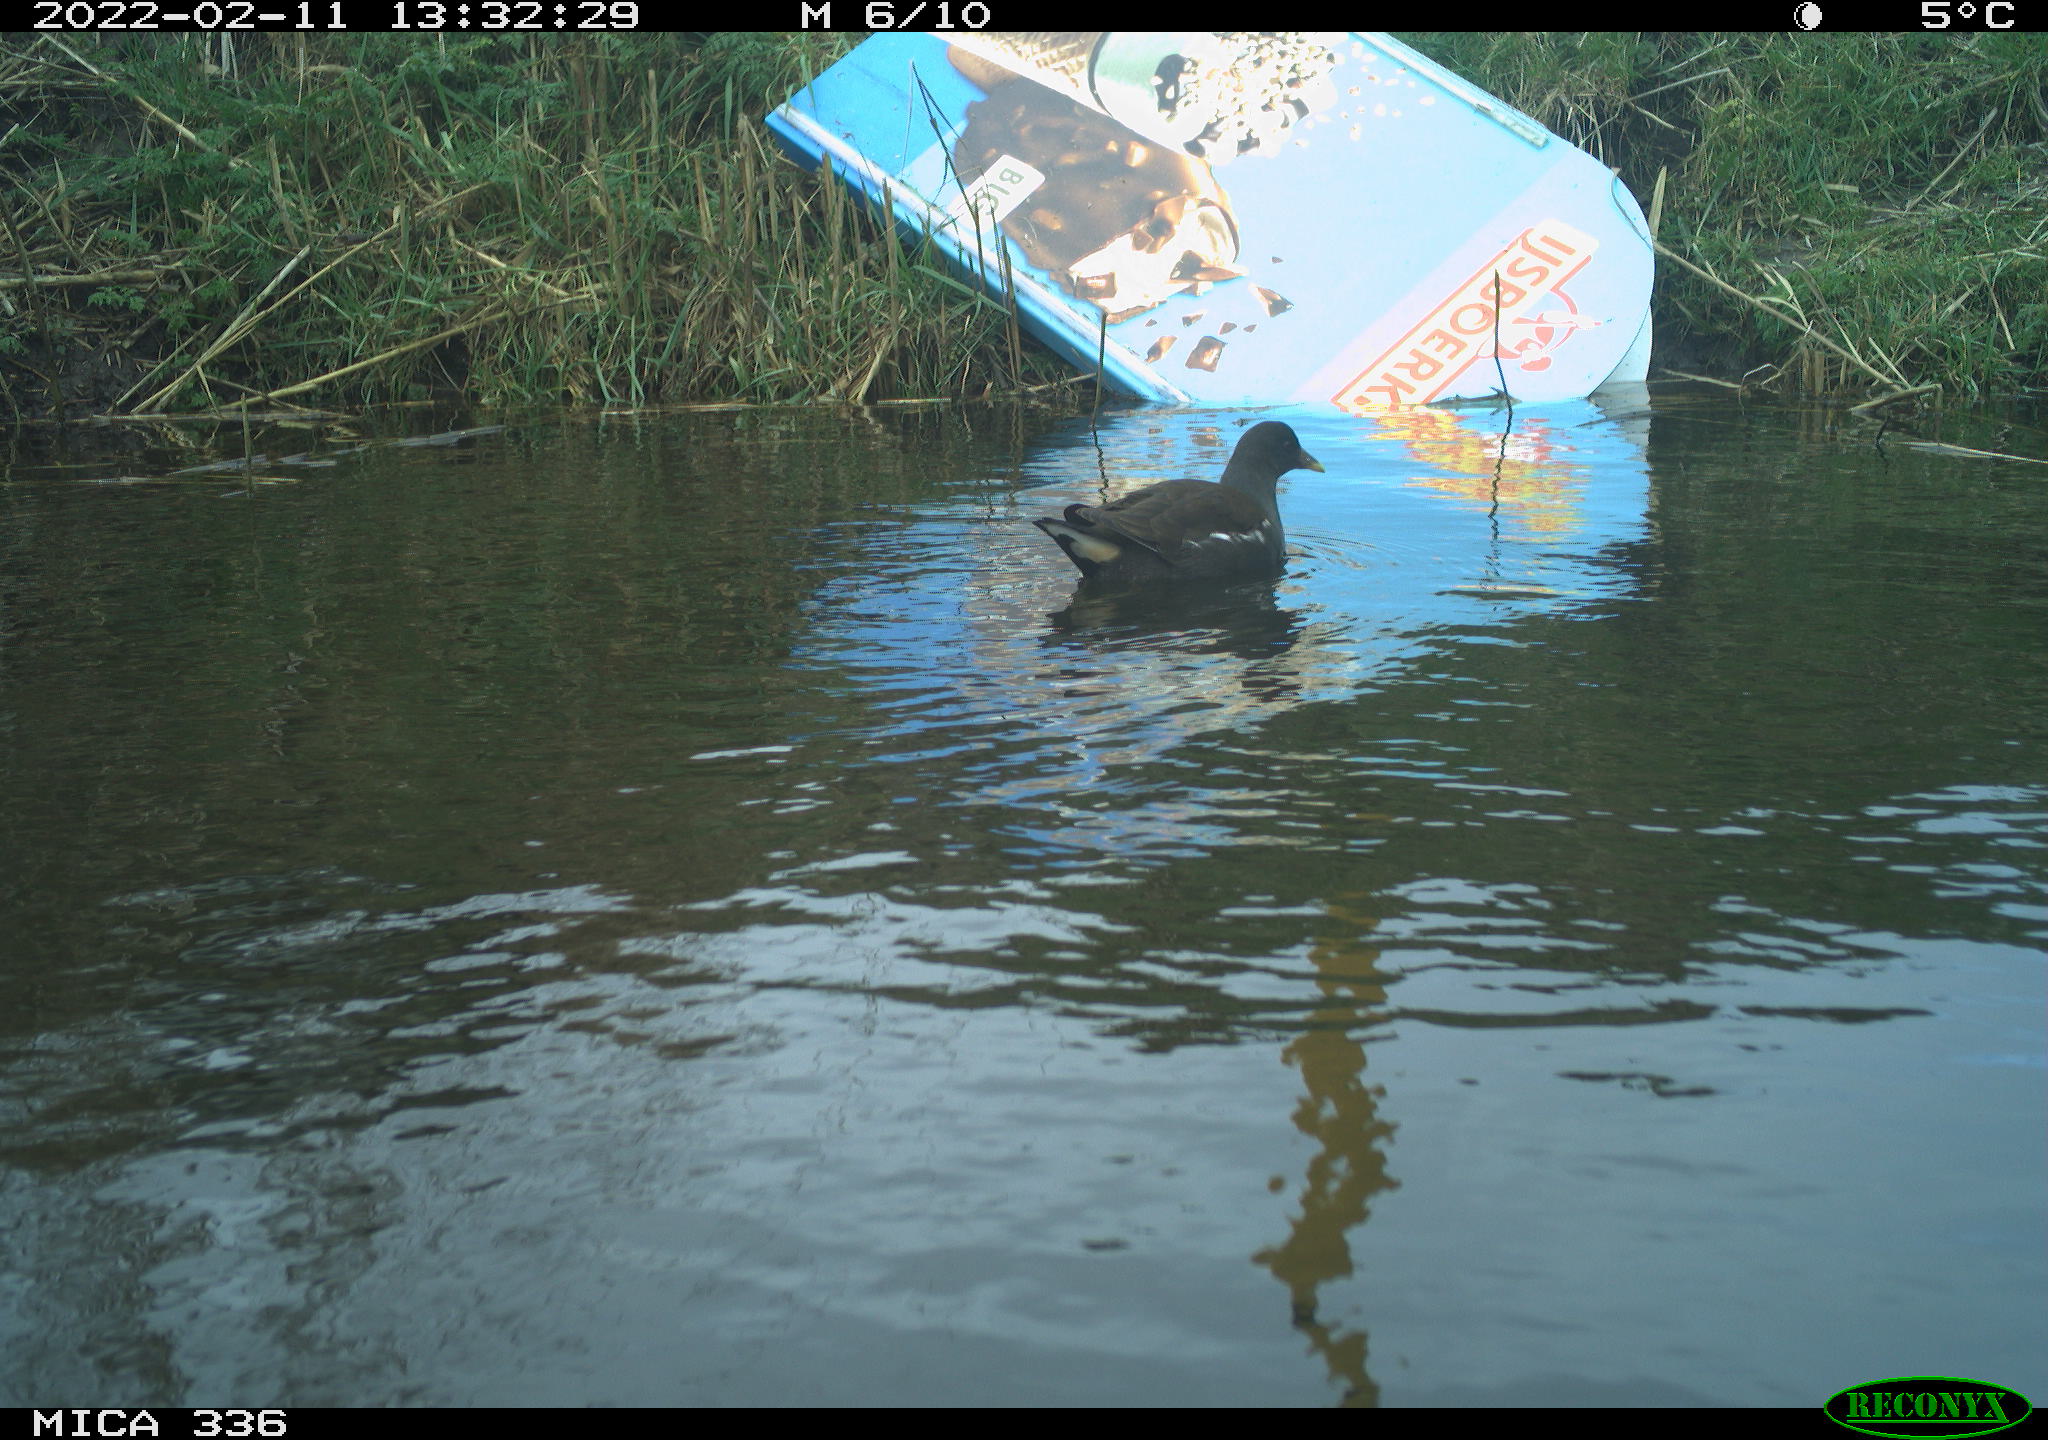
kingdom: Animalia
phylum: Chordata
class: Aves
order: Gruiformes
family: Rallidae
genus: Gallinula
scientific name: Gallinula chloropus
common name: Common moorhen
